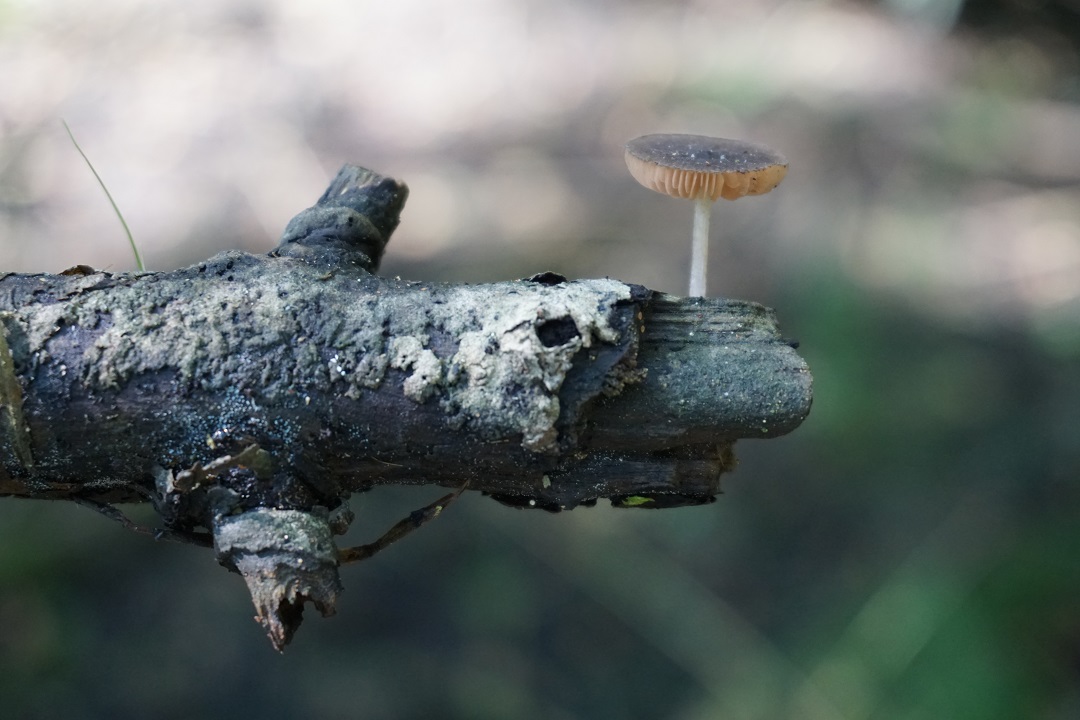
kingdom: Fungi
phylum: Basidiomycota
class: Agaricomycetes
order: Agaricales
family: Pluteaceae
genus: Pluteus
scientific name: Pluteus
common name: gråstokket skærmhat
